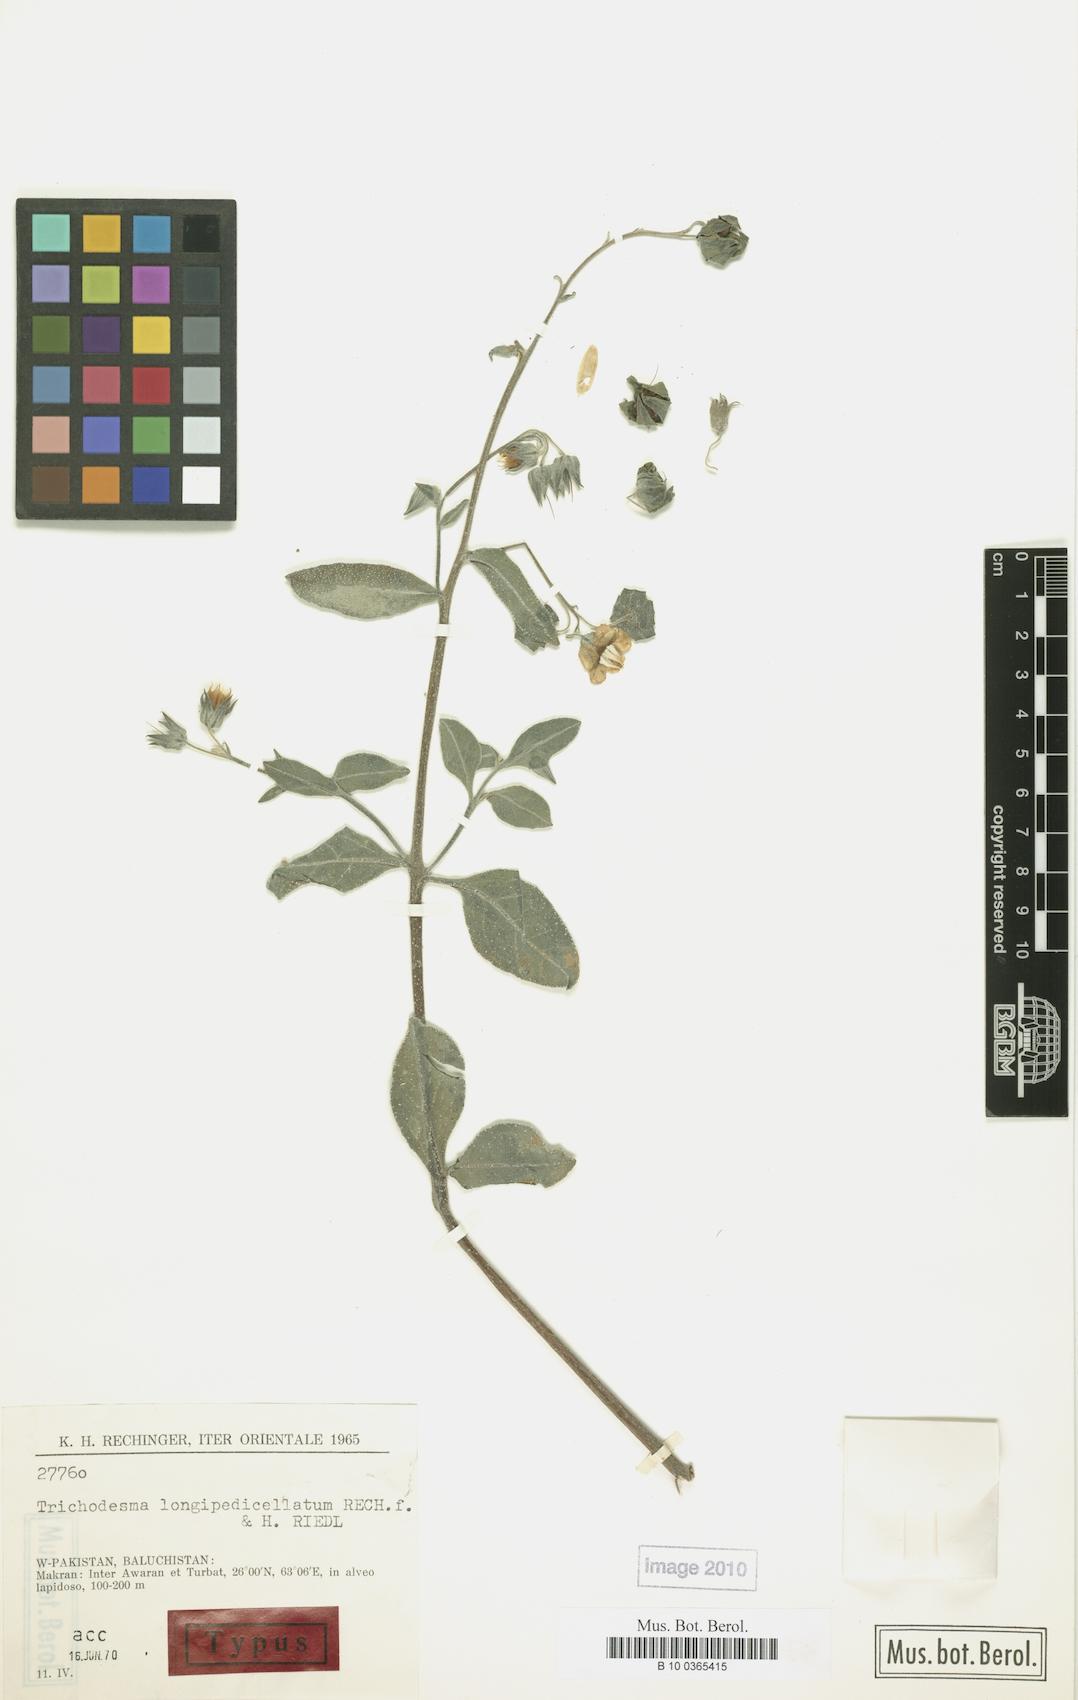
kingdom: Plantae
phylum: Tracheophyta
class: Magnoliopsida
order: Boraginales
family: Boraginaceae
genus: Trichodesma
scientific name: Trichodesma stocksii
